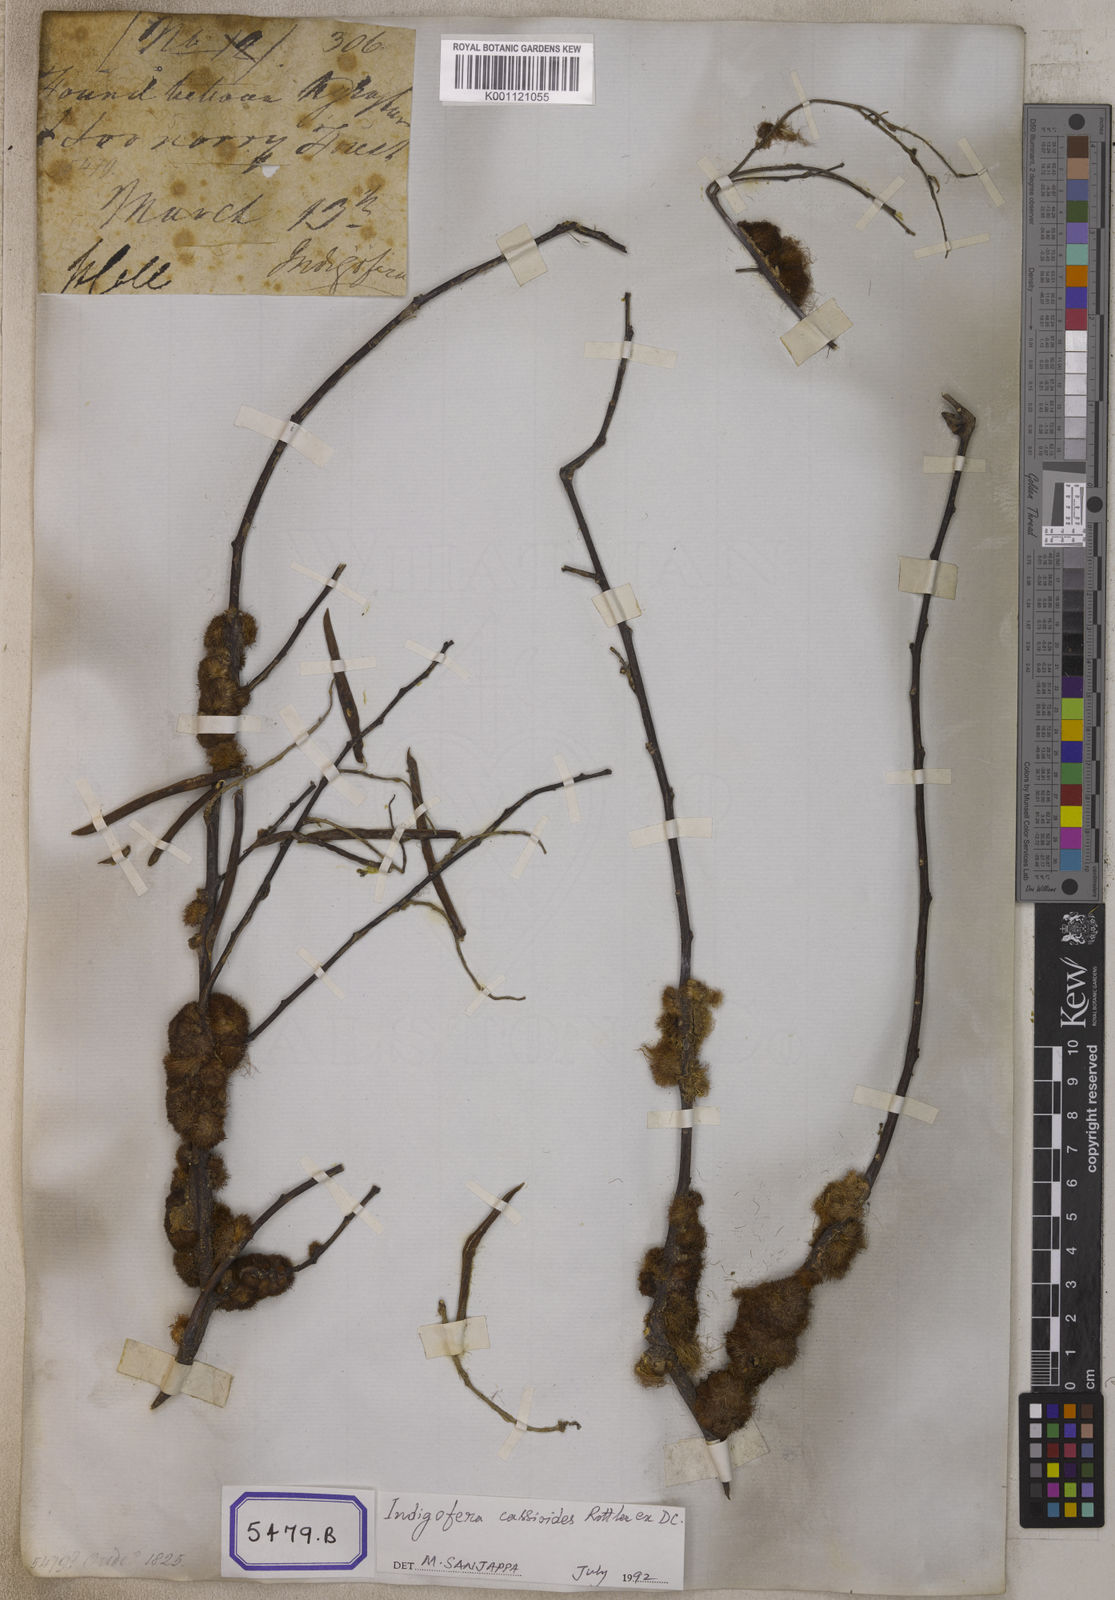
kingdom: Plantae
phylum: Tracheophyta
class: Magnoliopsida
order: Fabales
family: Fabaceae
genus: Indigofera
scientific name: Indigofera cassioides
